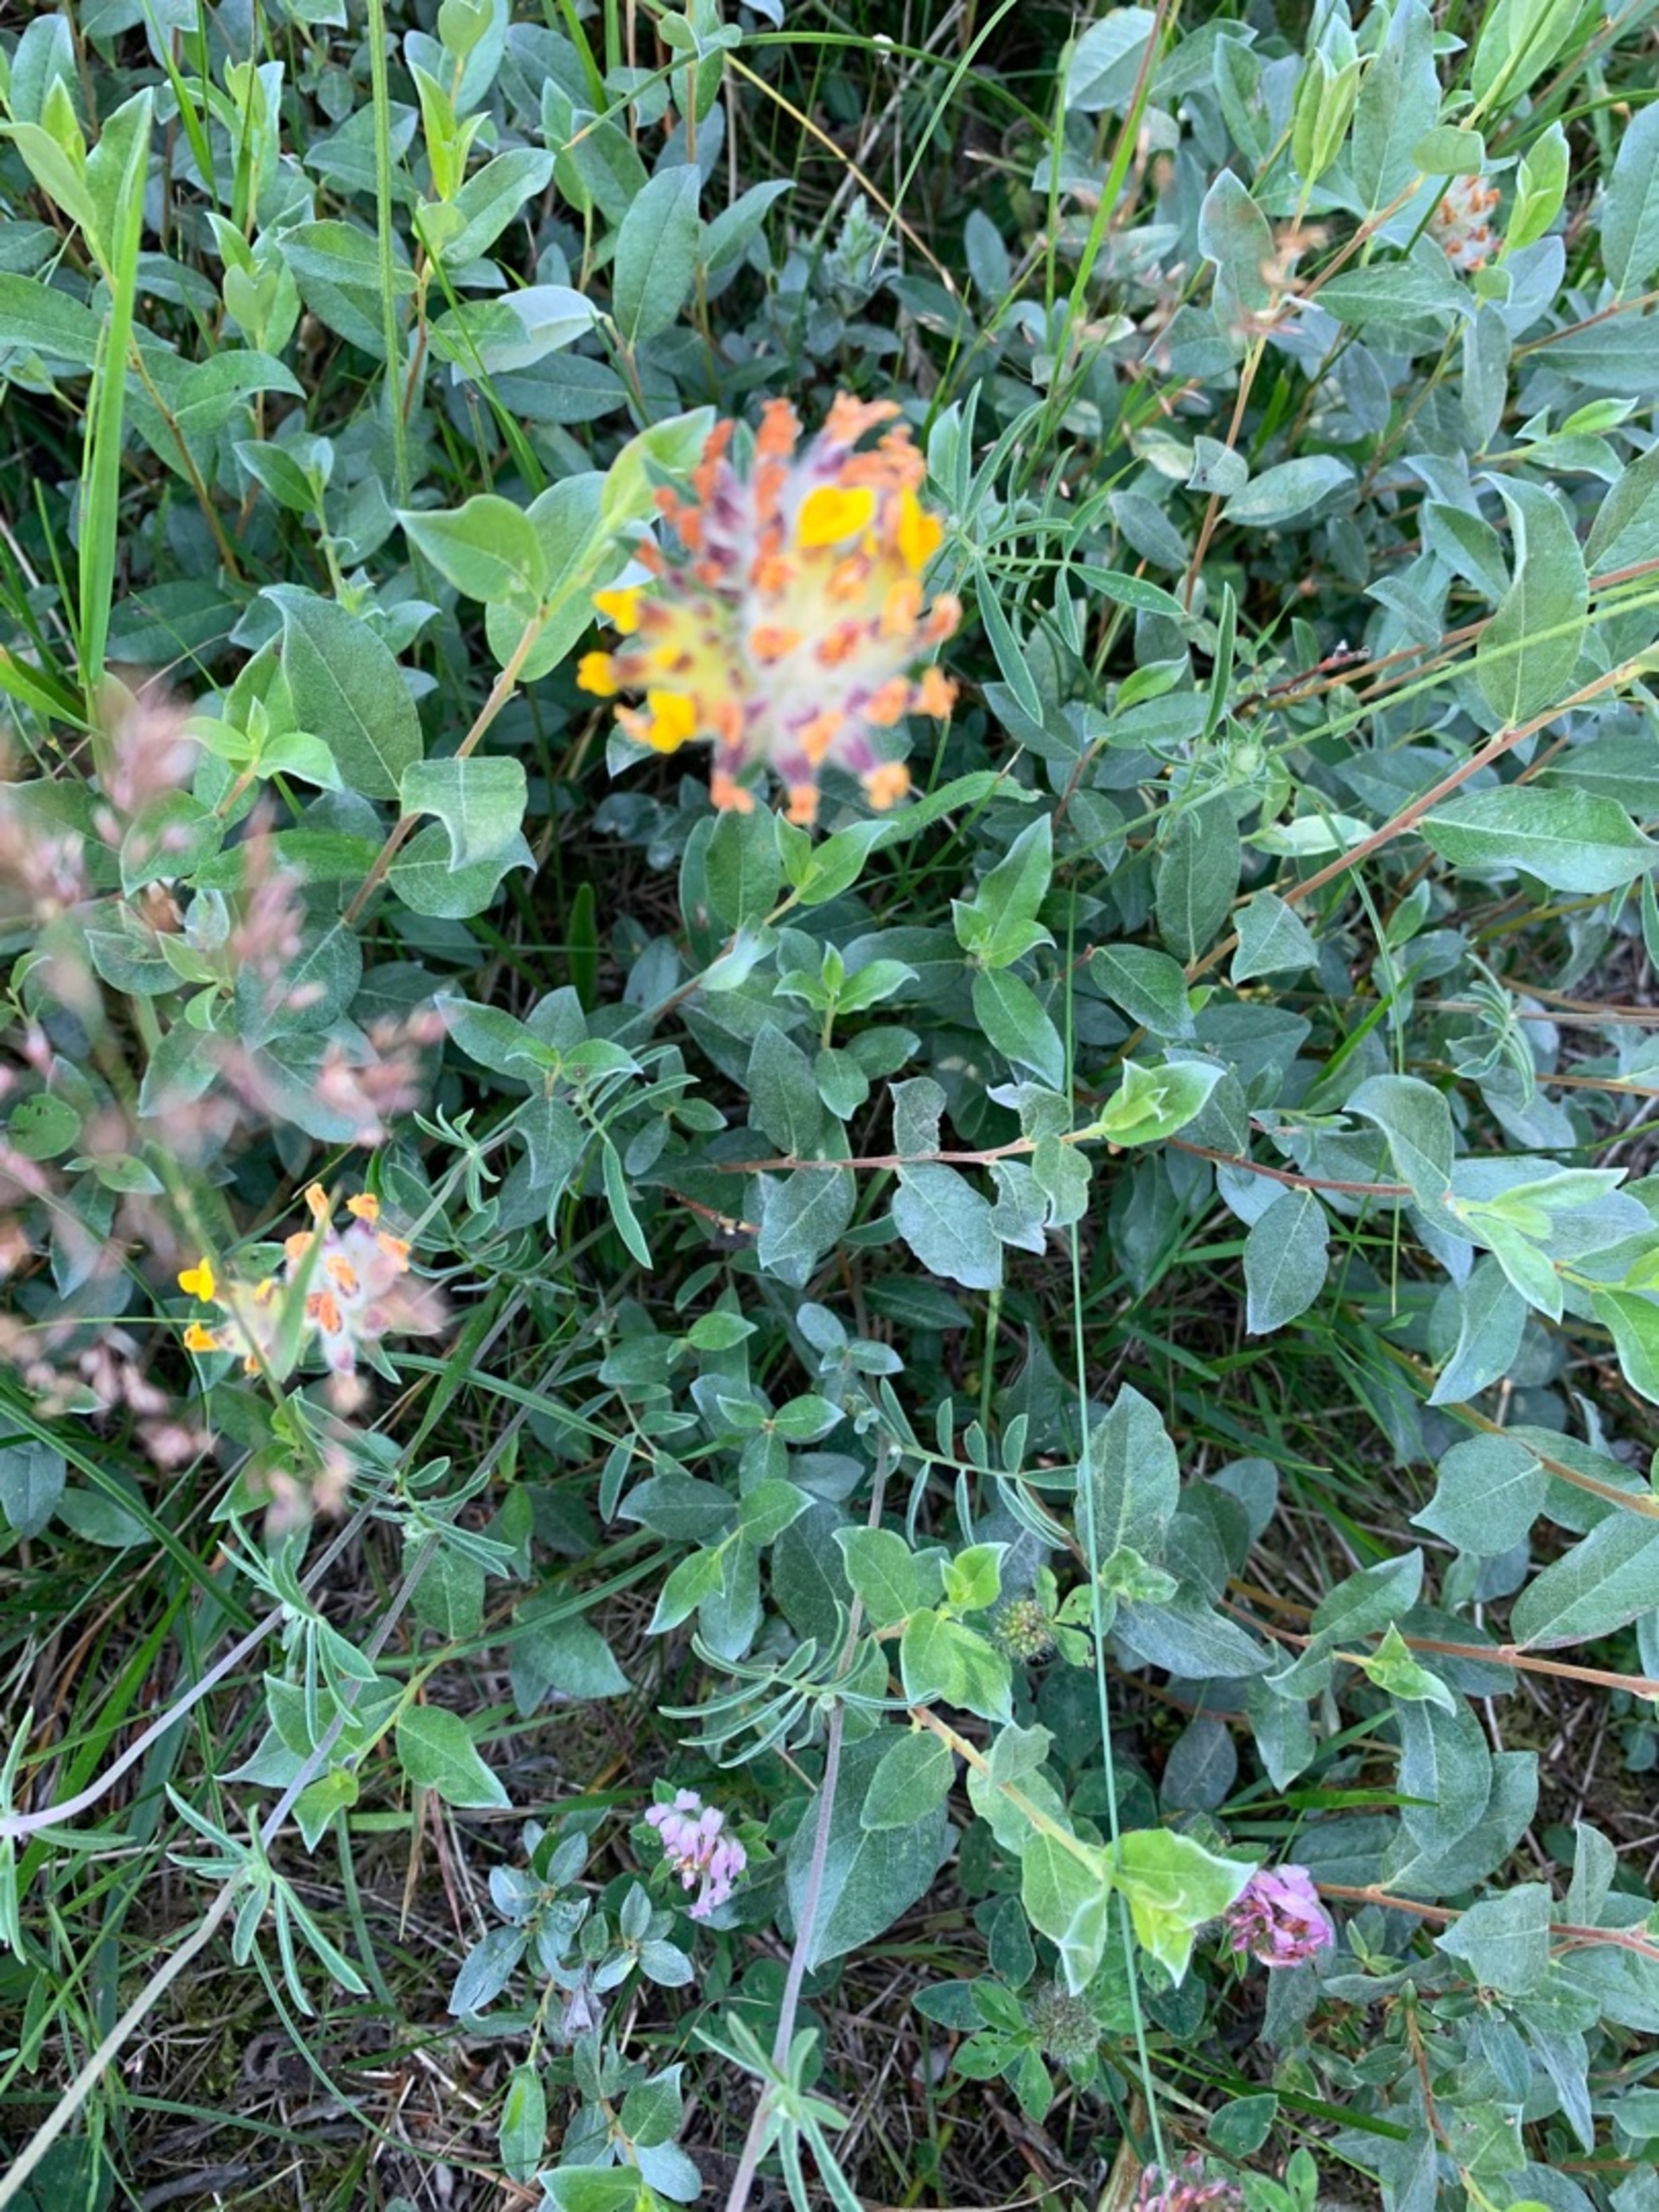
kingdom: Plantae
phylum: Tracheophyta
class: Magnoliopsida
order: Fabales
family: Fabaceae
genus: Anthyllis
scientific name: Anthyllis vulneraria
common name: Rundbælg
